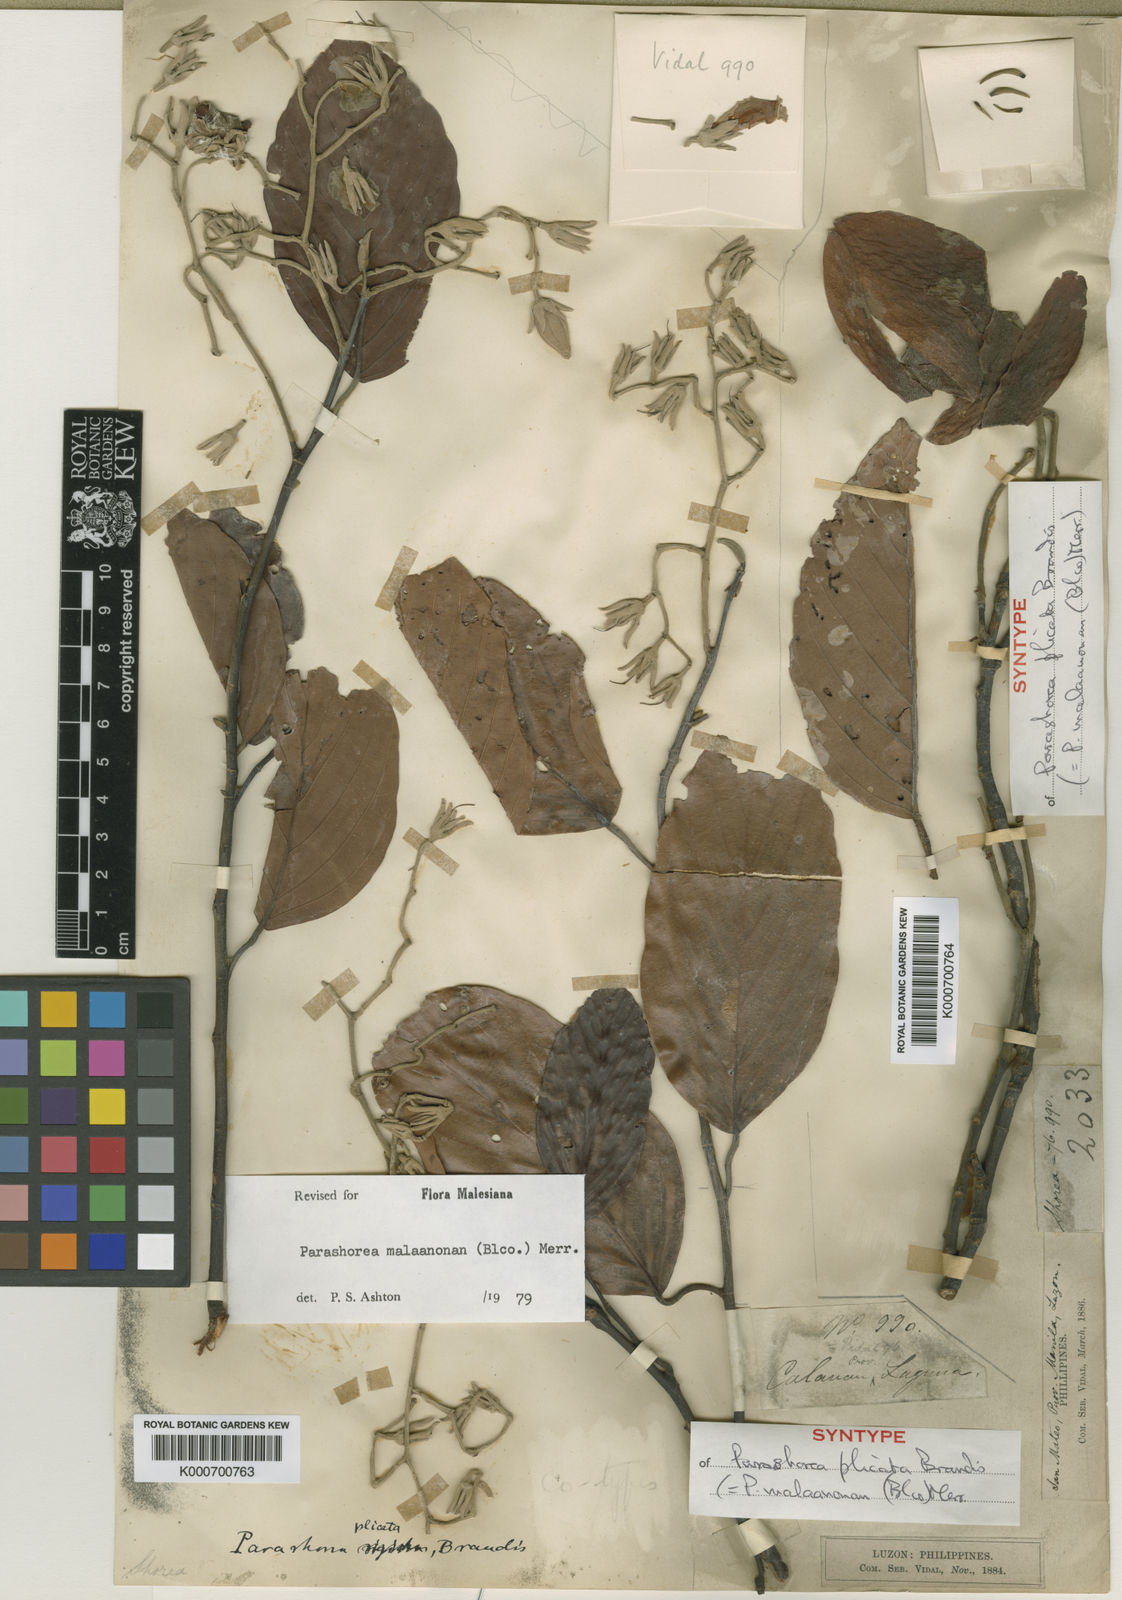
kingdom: Plantae
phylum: Tracheophyta
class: Magnoliopsida
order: Malvales
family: Dipterocarpaceae
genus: Parashorea
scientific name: Parashorea malaanonan
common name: White lauan
